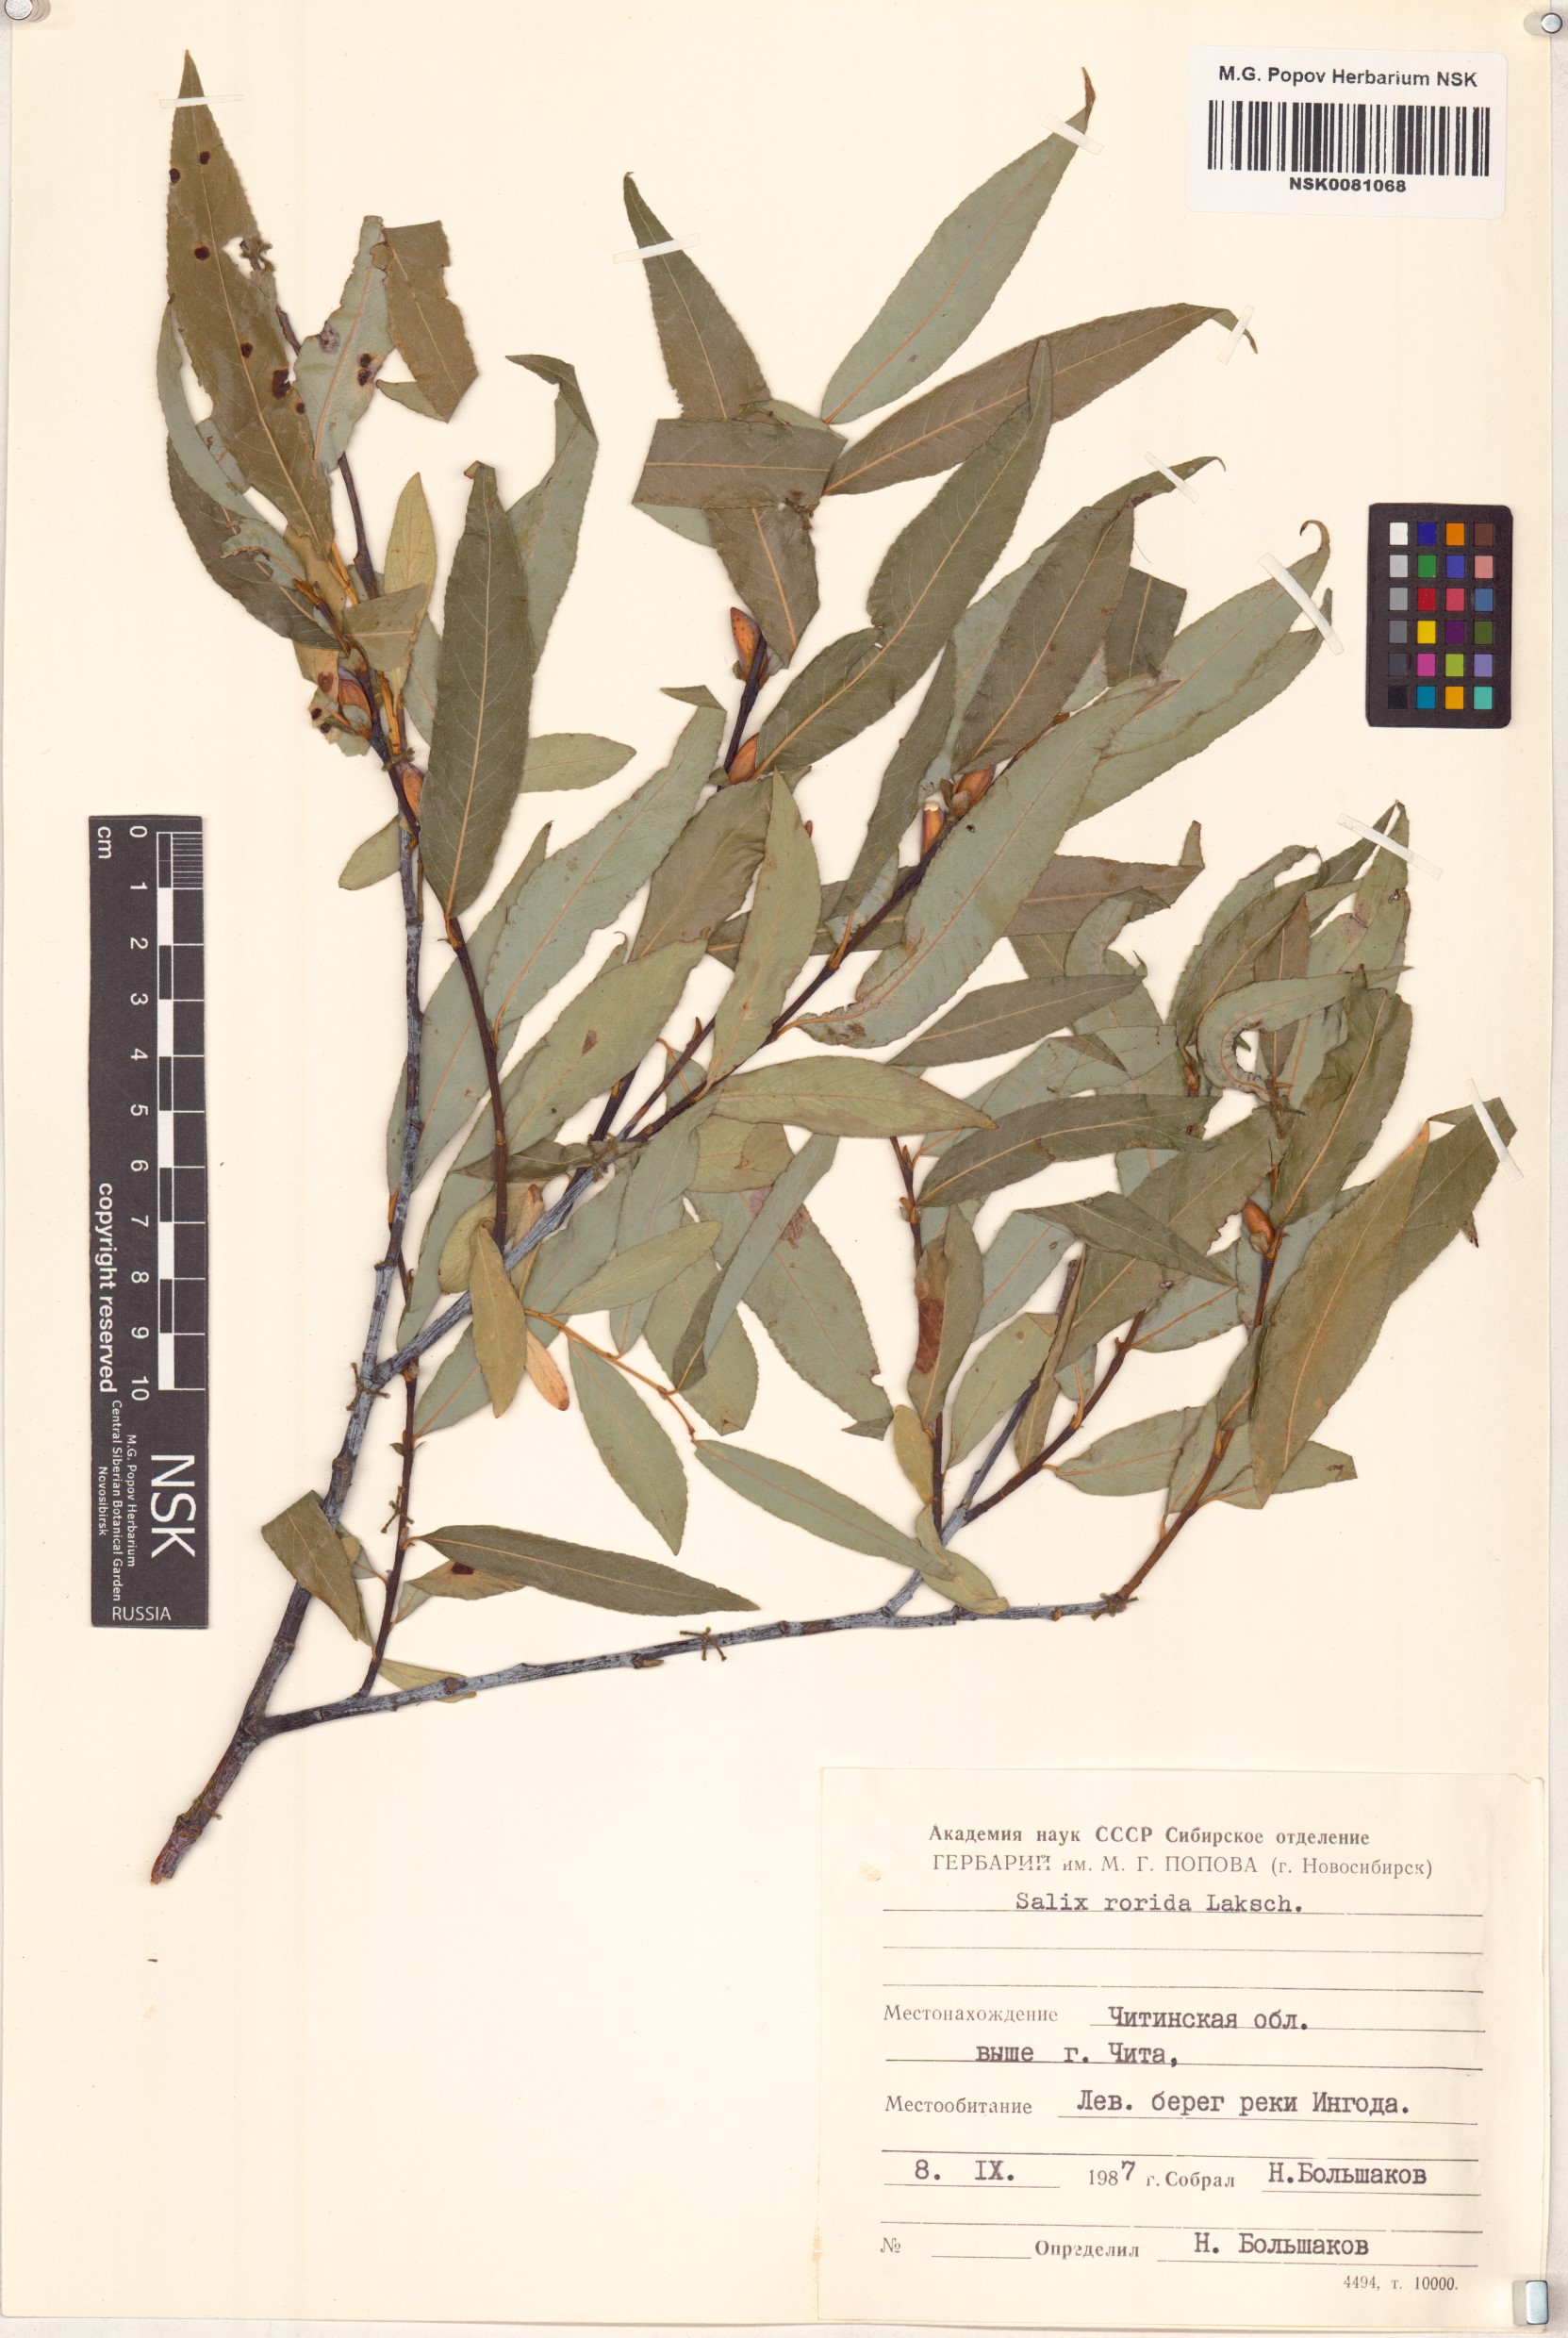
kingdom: Plantae
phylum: Tracheophyta
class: Magnoliopsida
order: Malpighiales
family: Salicaceae
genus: Salix
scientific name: Salix rorida
